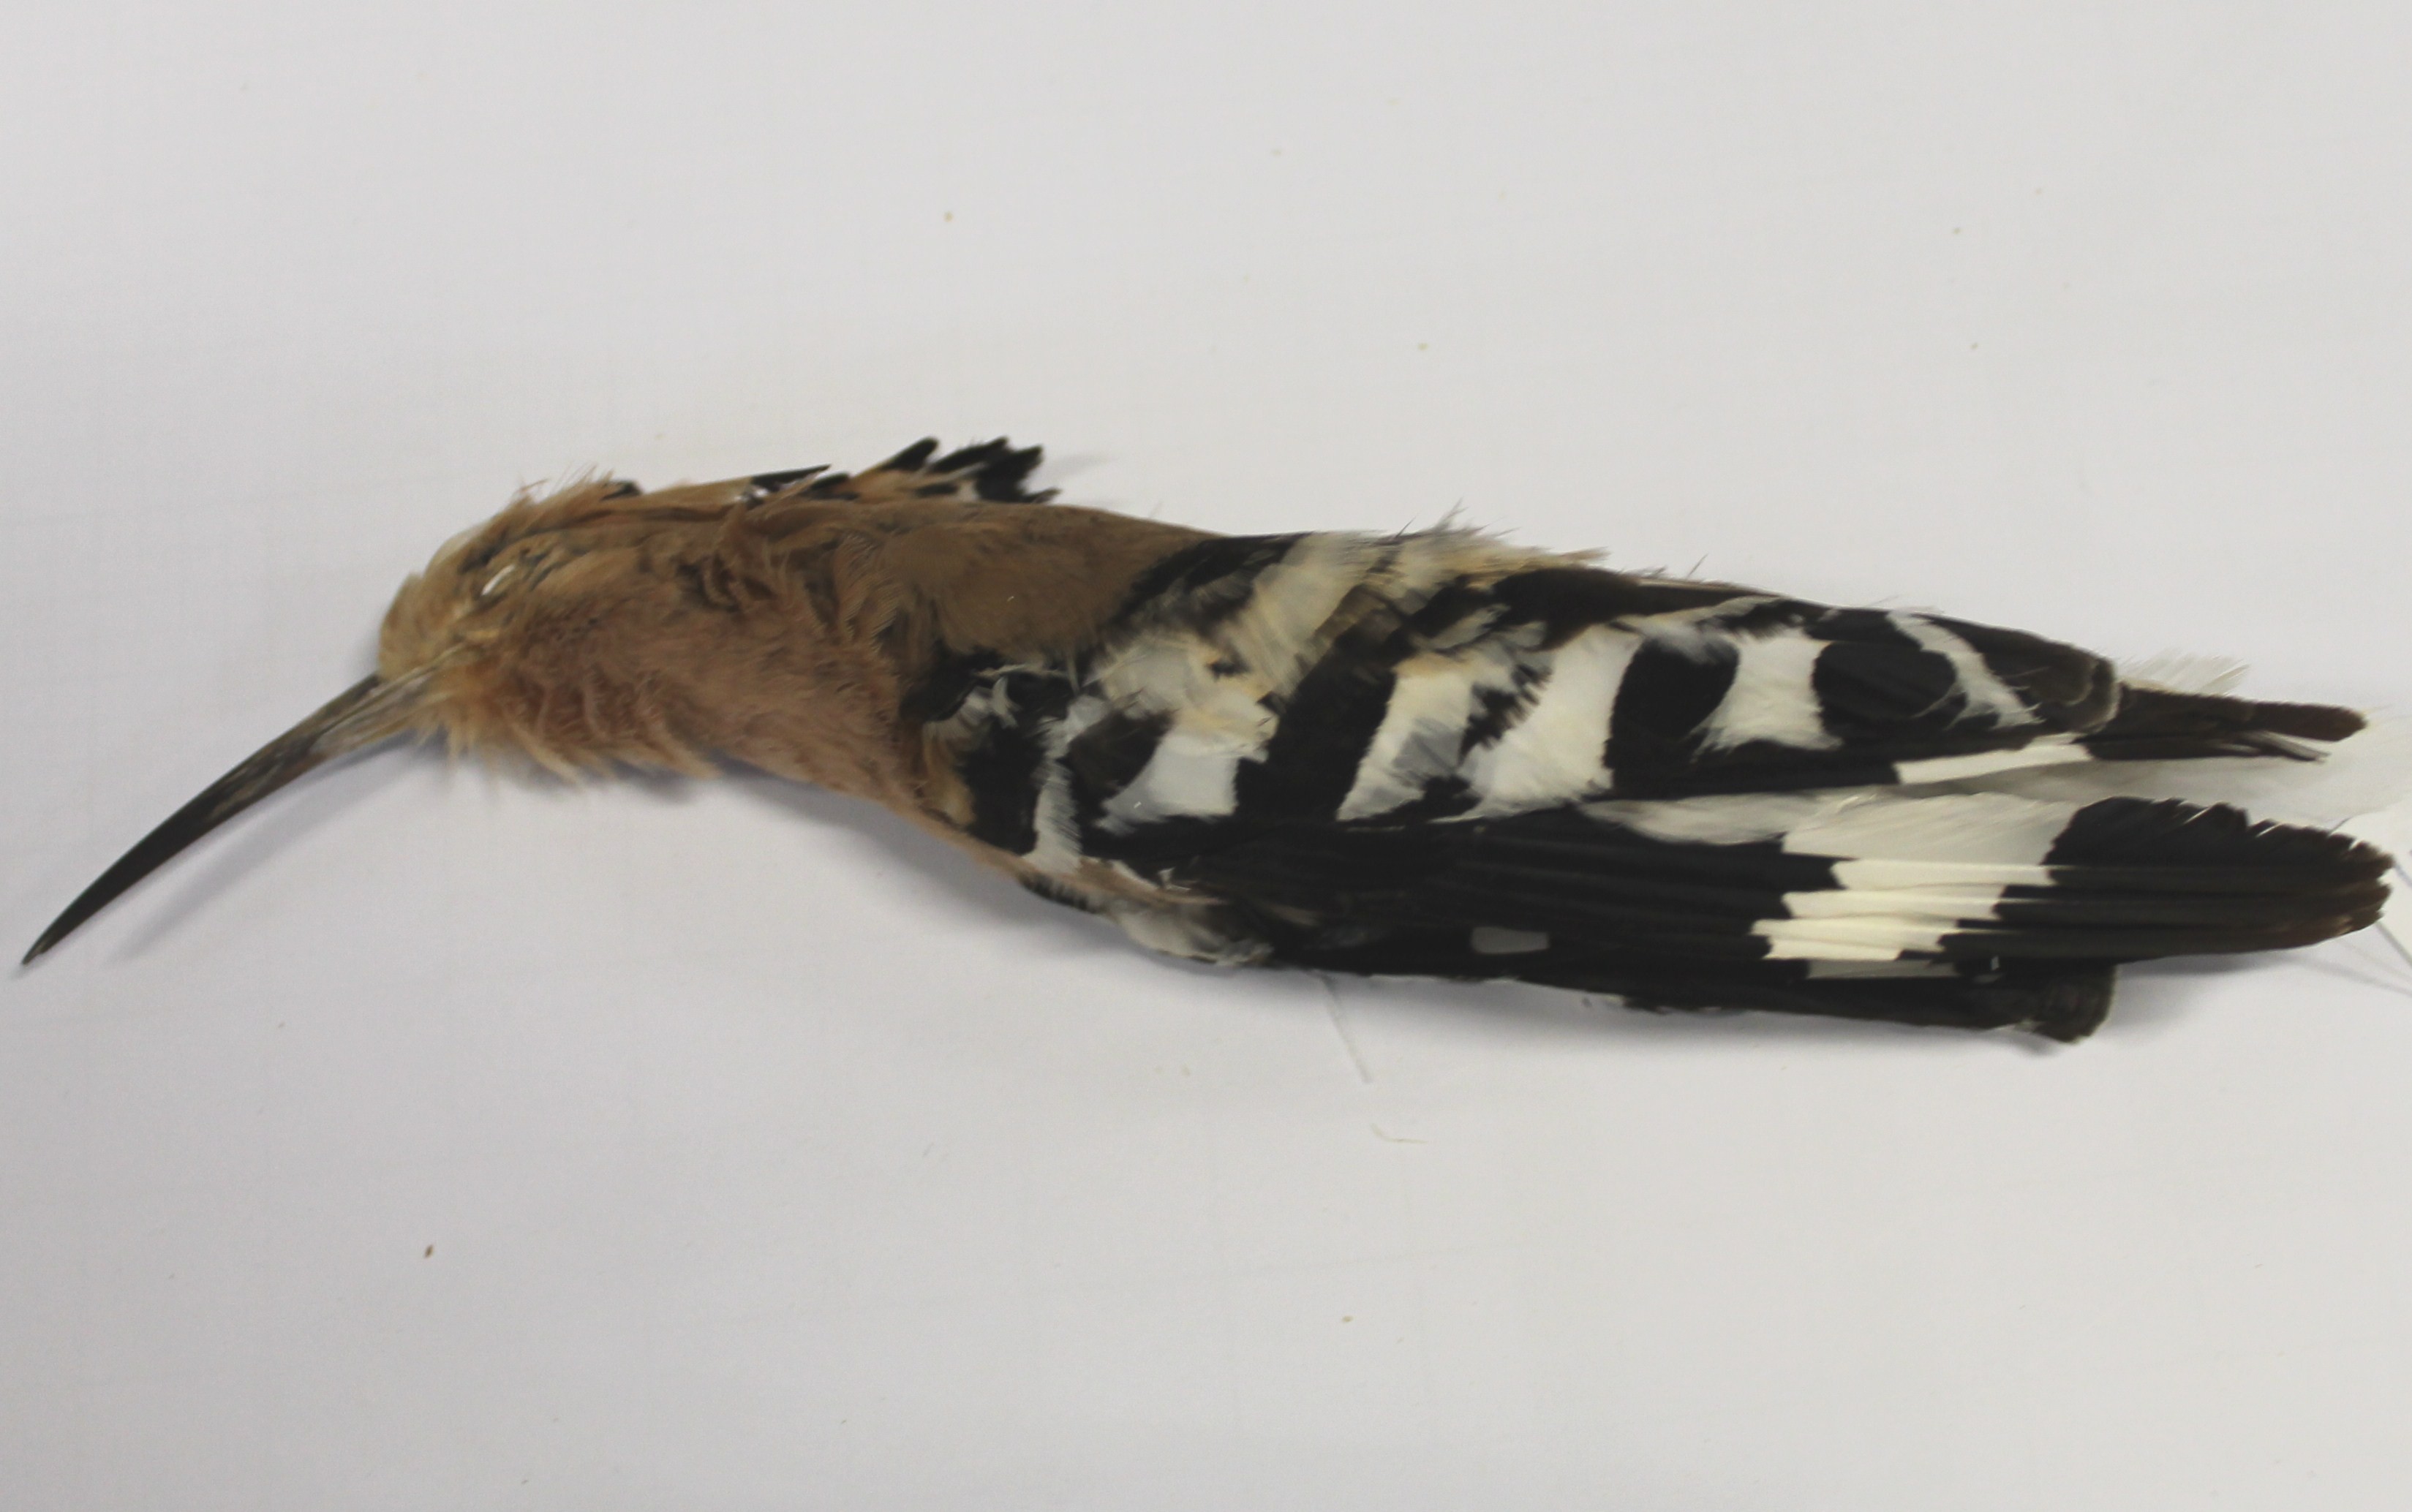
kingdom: Animalia
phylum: Chordata
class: Aves
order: Bucerotiformes
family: Upupidae
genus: Upupa
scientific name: Upupa epops
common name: Eurasian hoopoe
